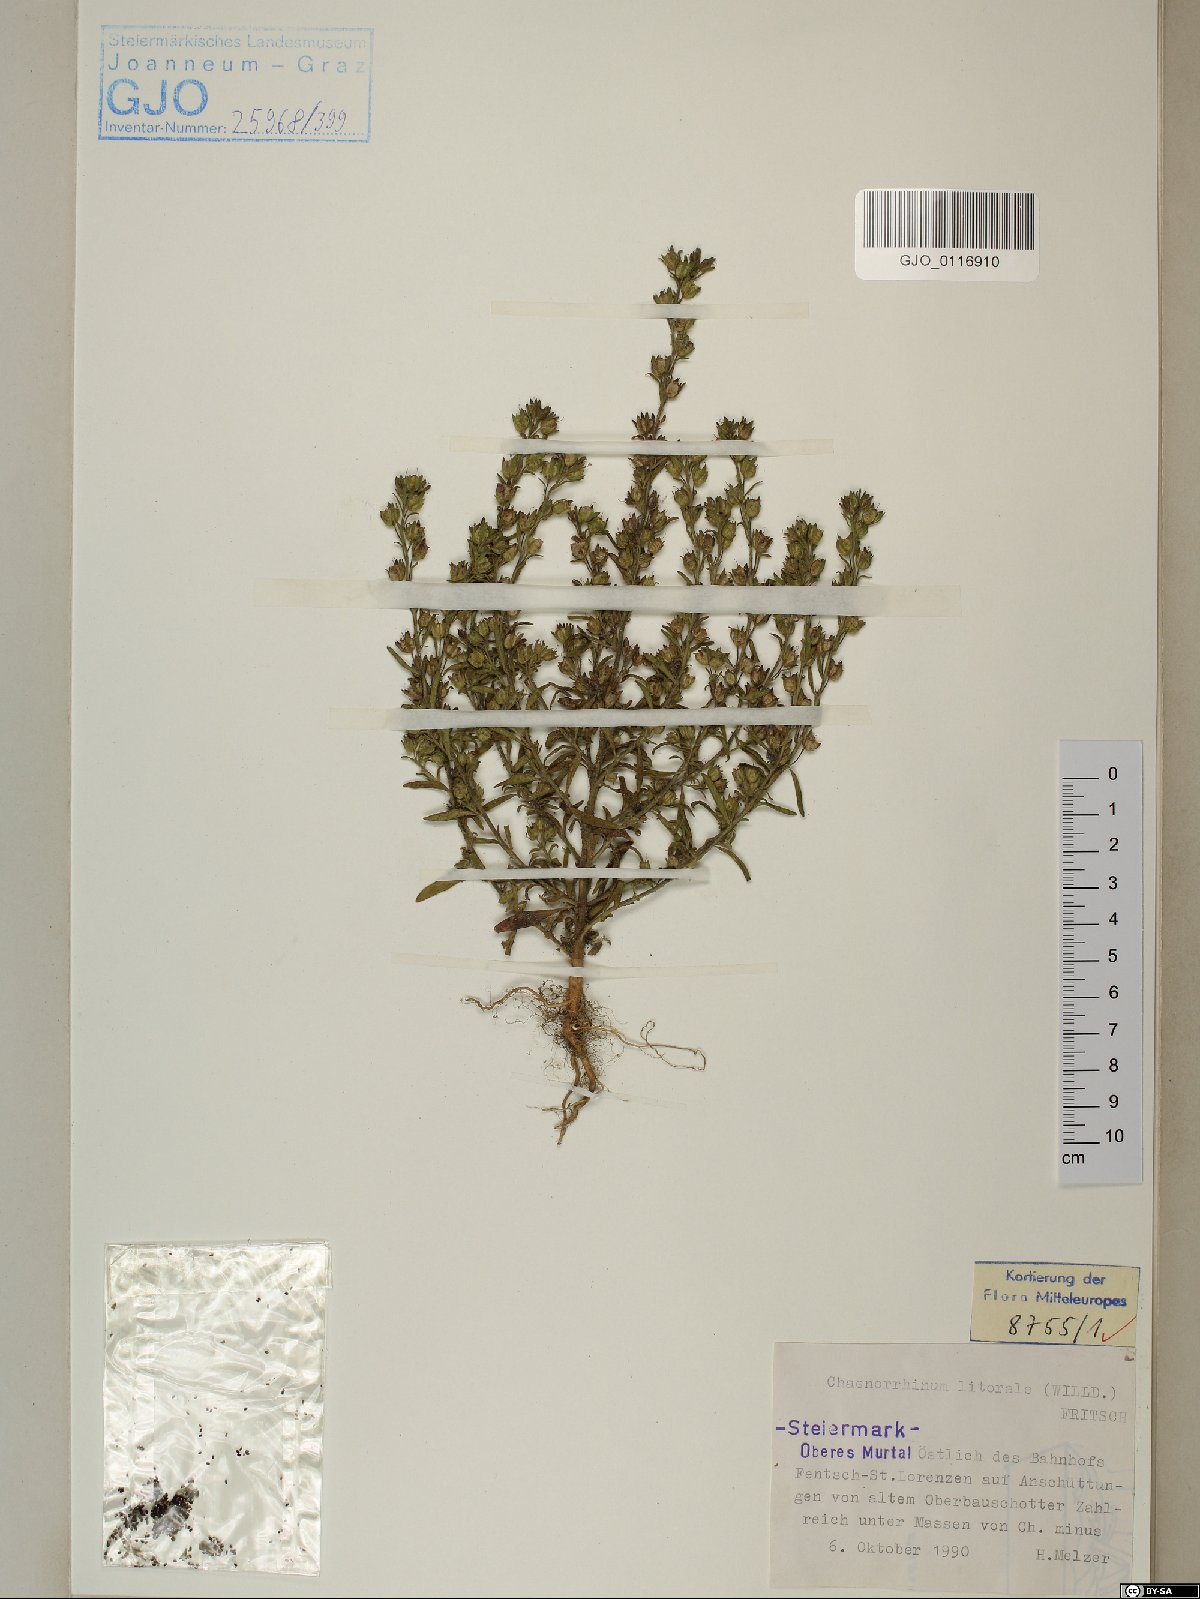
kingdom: Plantae
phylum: Tracheophyta
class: Magnoliopsida
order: Lamiales
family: Plantaginaceae
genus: Chaenorhinum
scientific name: Chaenorhinum litorale
